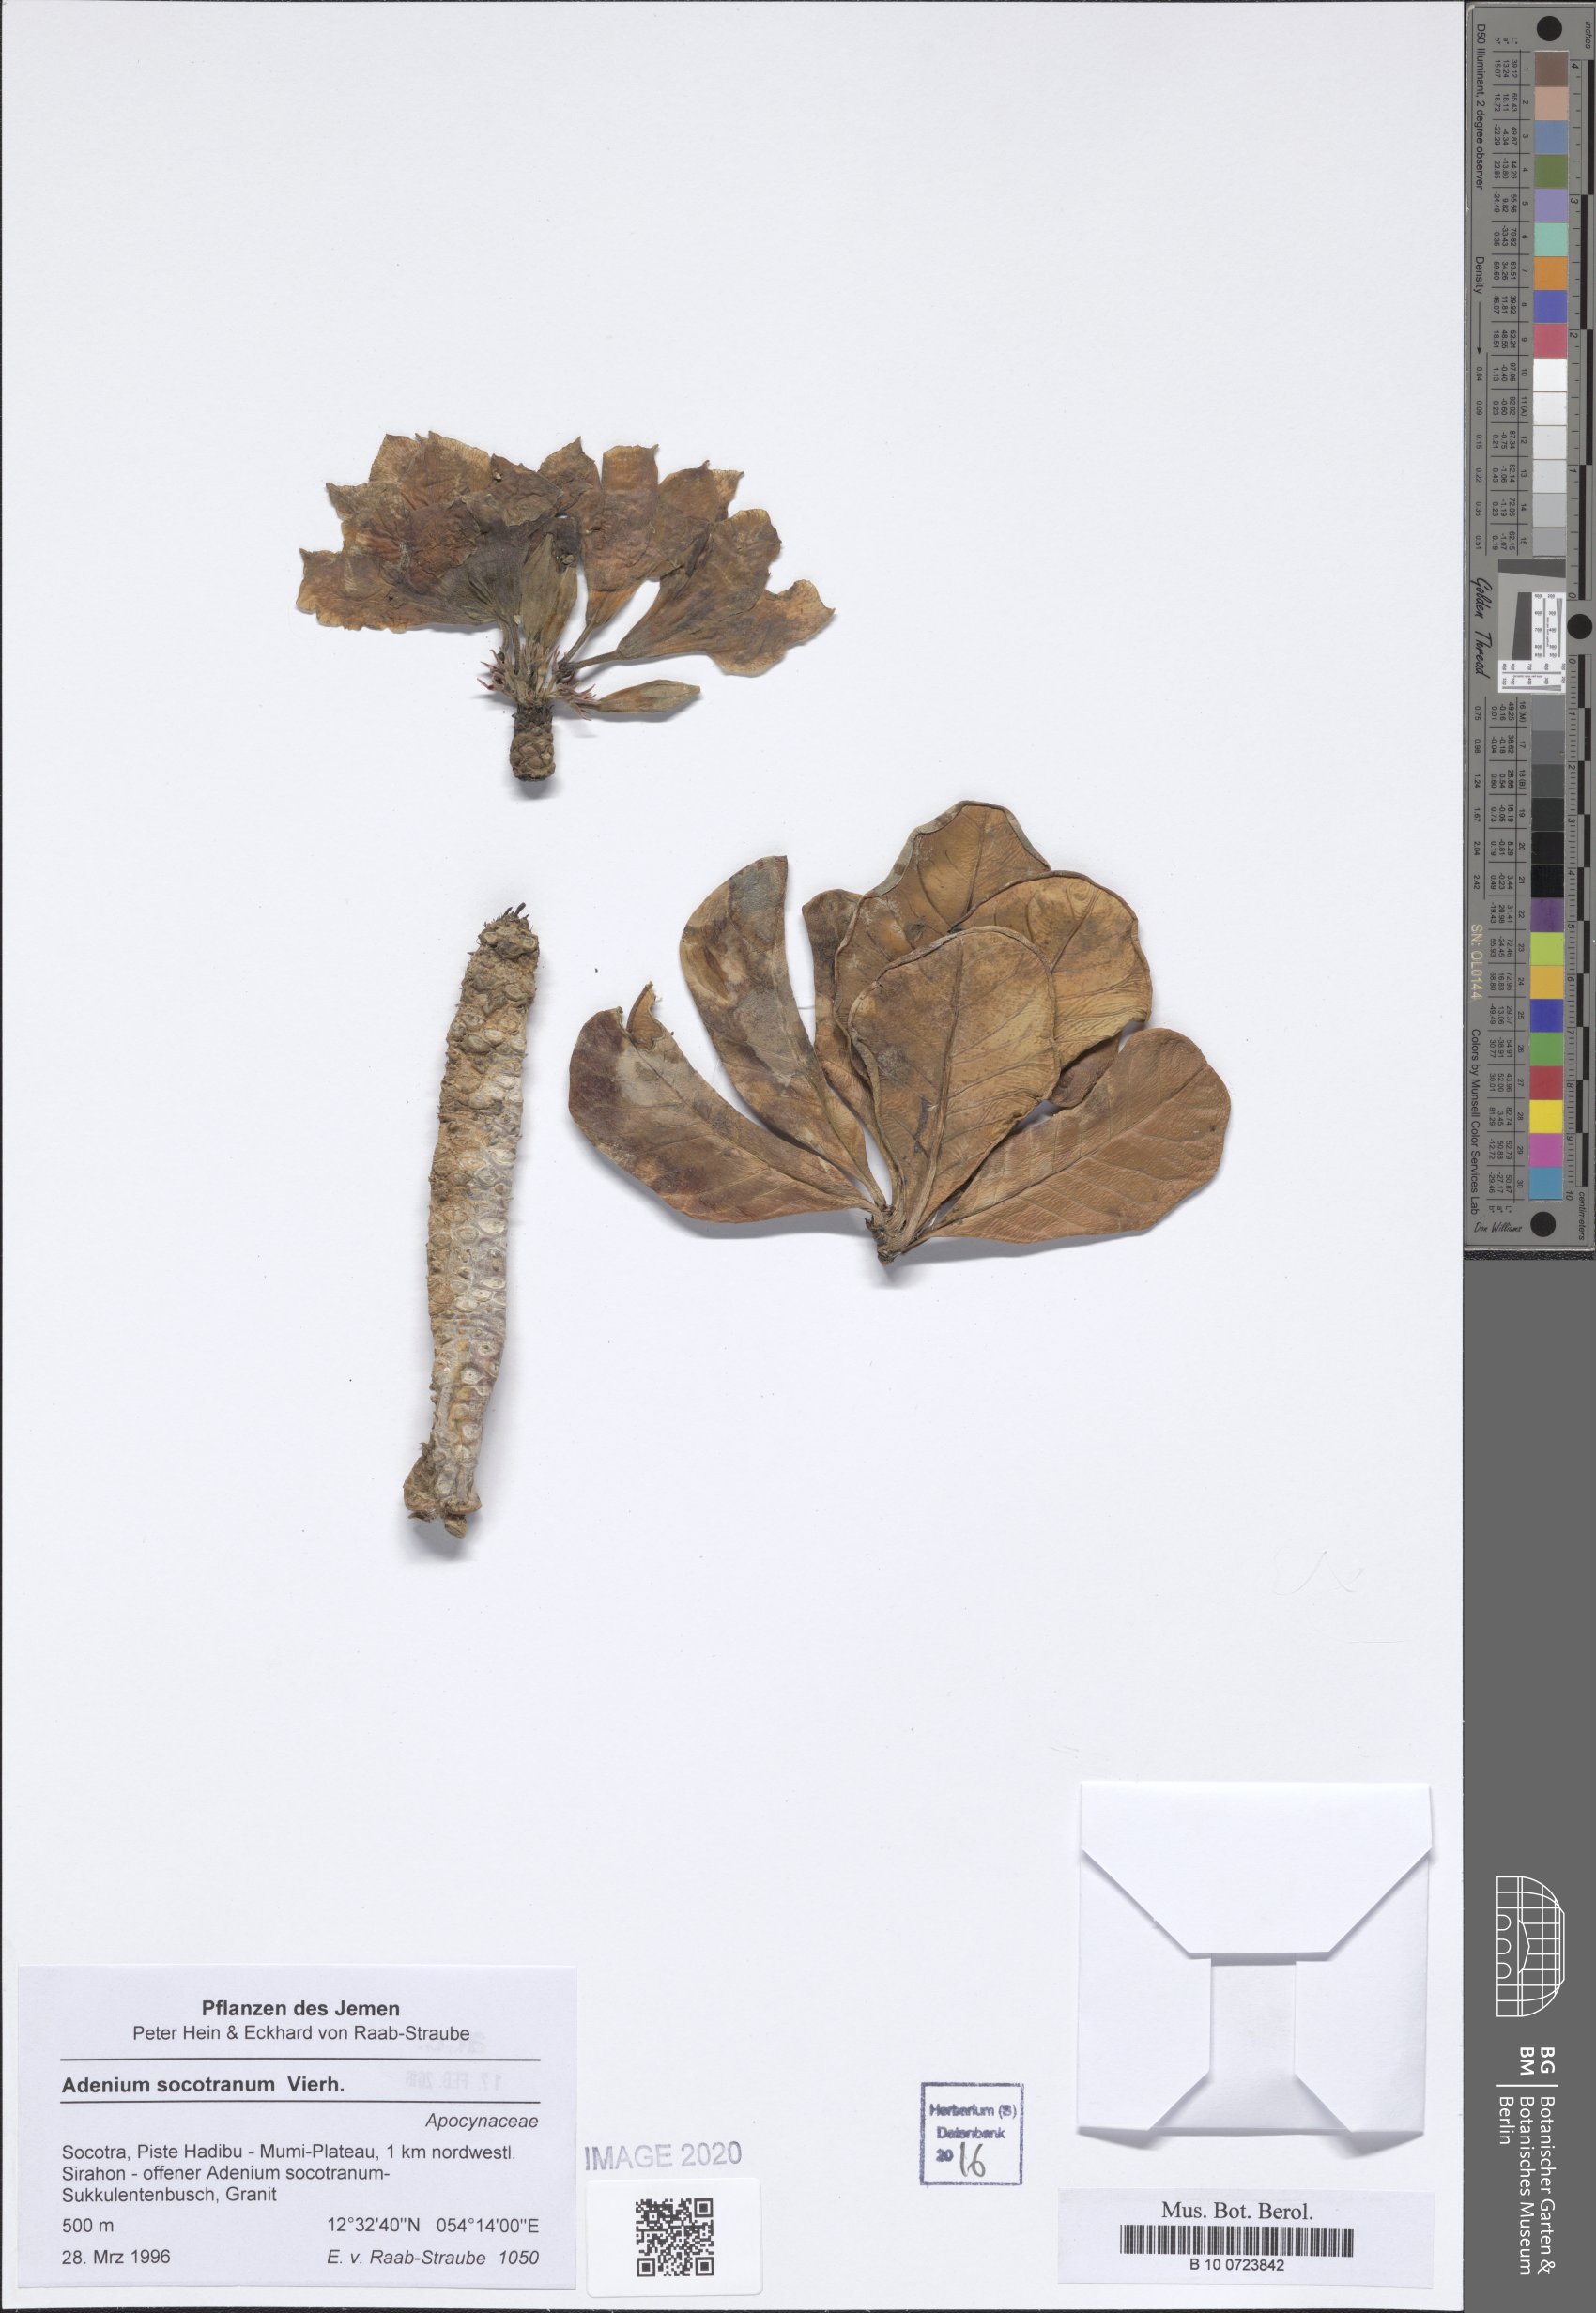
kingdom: Plantae
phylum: Tracheophyta
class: Magnoliopsida
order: Gentianales
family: Apocynaceae
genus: Adenium
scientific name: Adenium obesum
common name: Desert-rose
